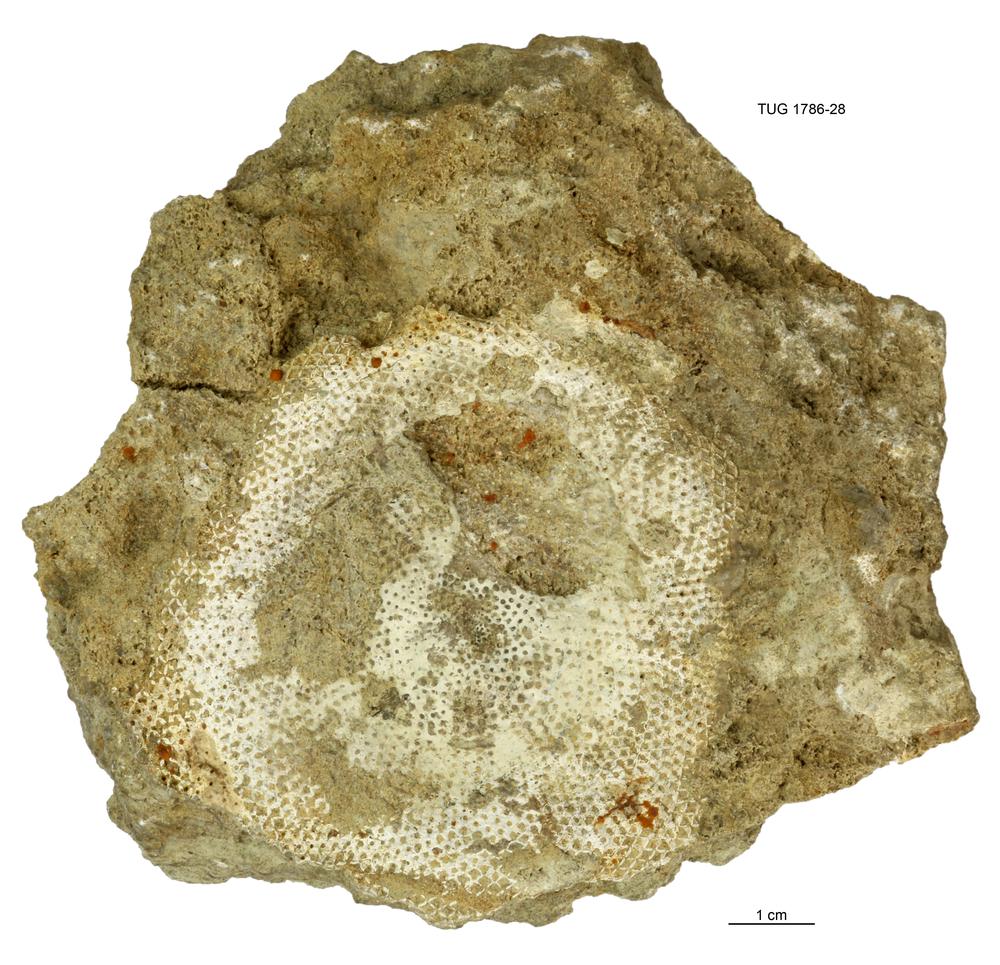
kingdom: Plantae
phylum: Chlorophyta
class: Chlorophyceae
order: Receptaculitales
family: Receptaculitaceae
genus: Receptaculites
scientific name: Receptaculites
